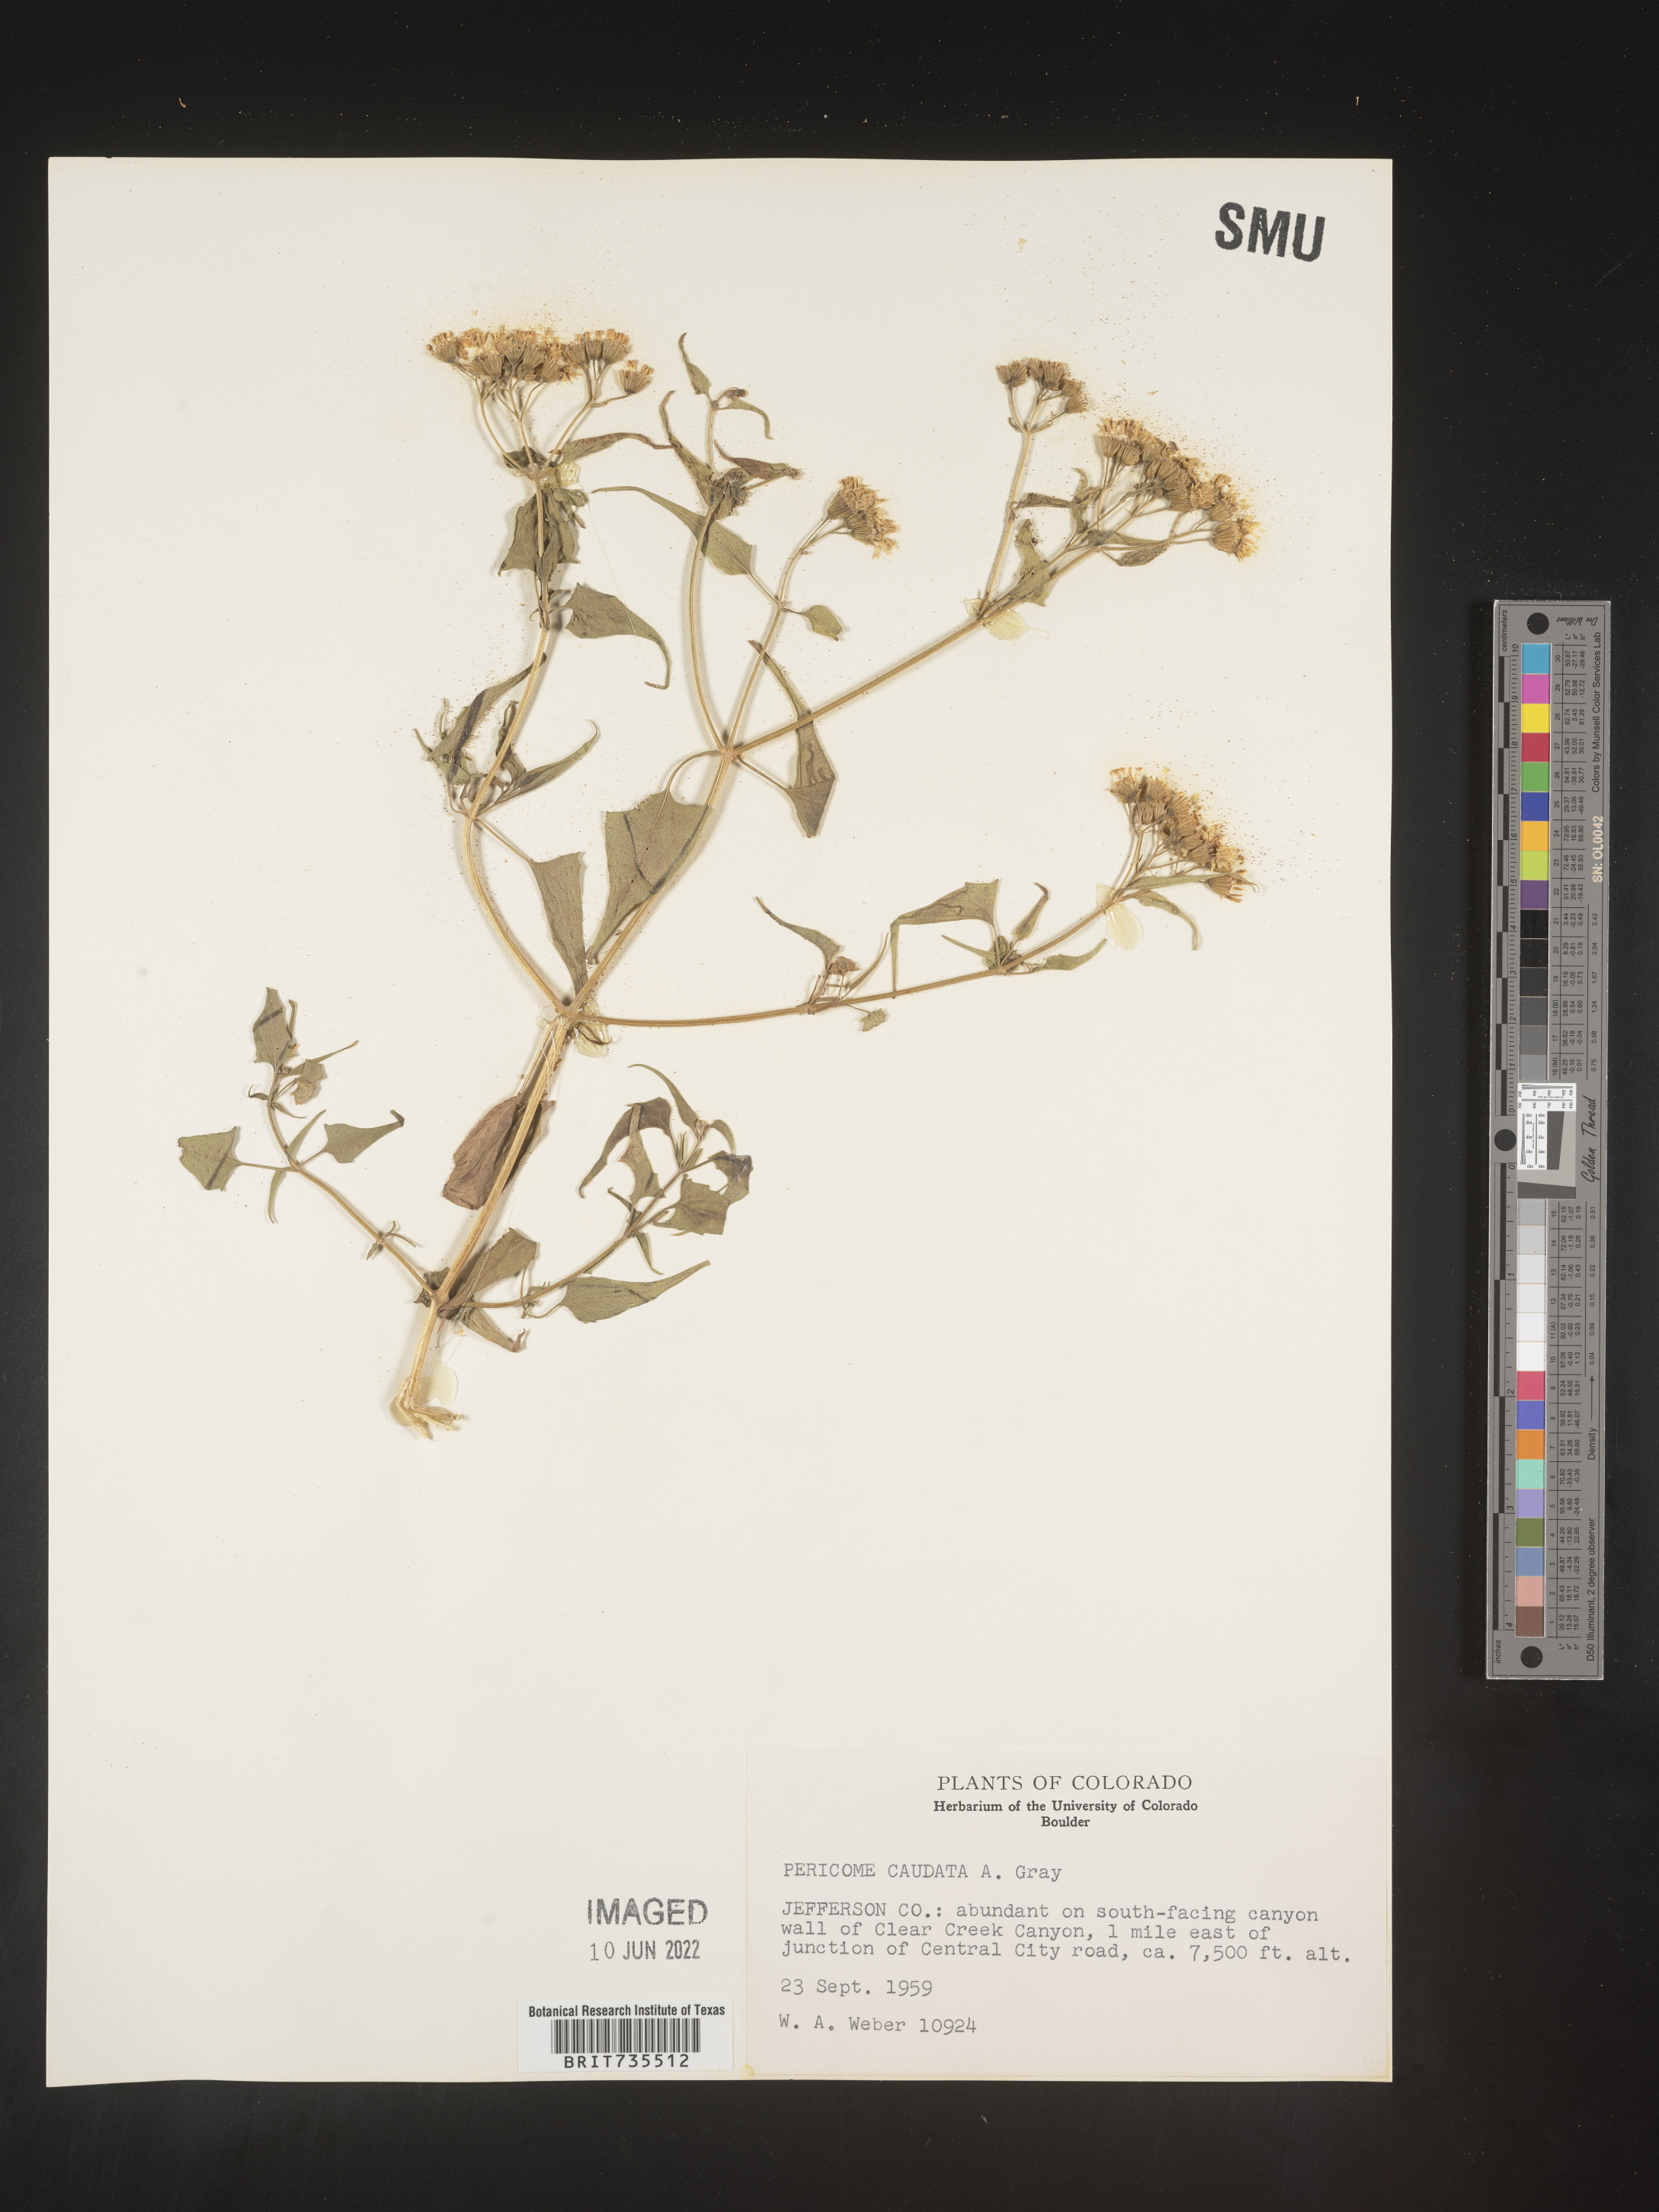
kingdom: Plantae
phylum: Tracheophyta
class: Magnoliopsida
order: Asterales
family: Asteraceae
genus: Pericome
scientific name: Pericome
